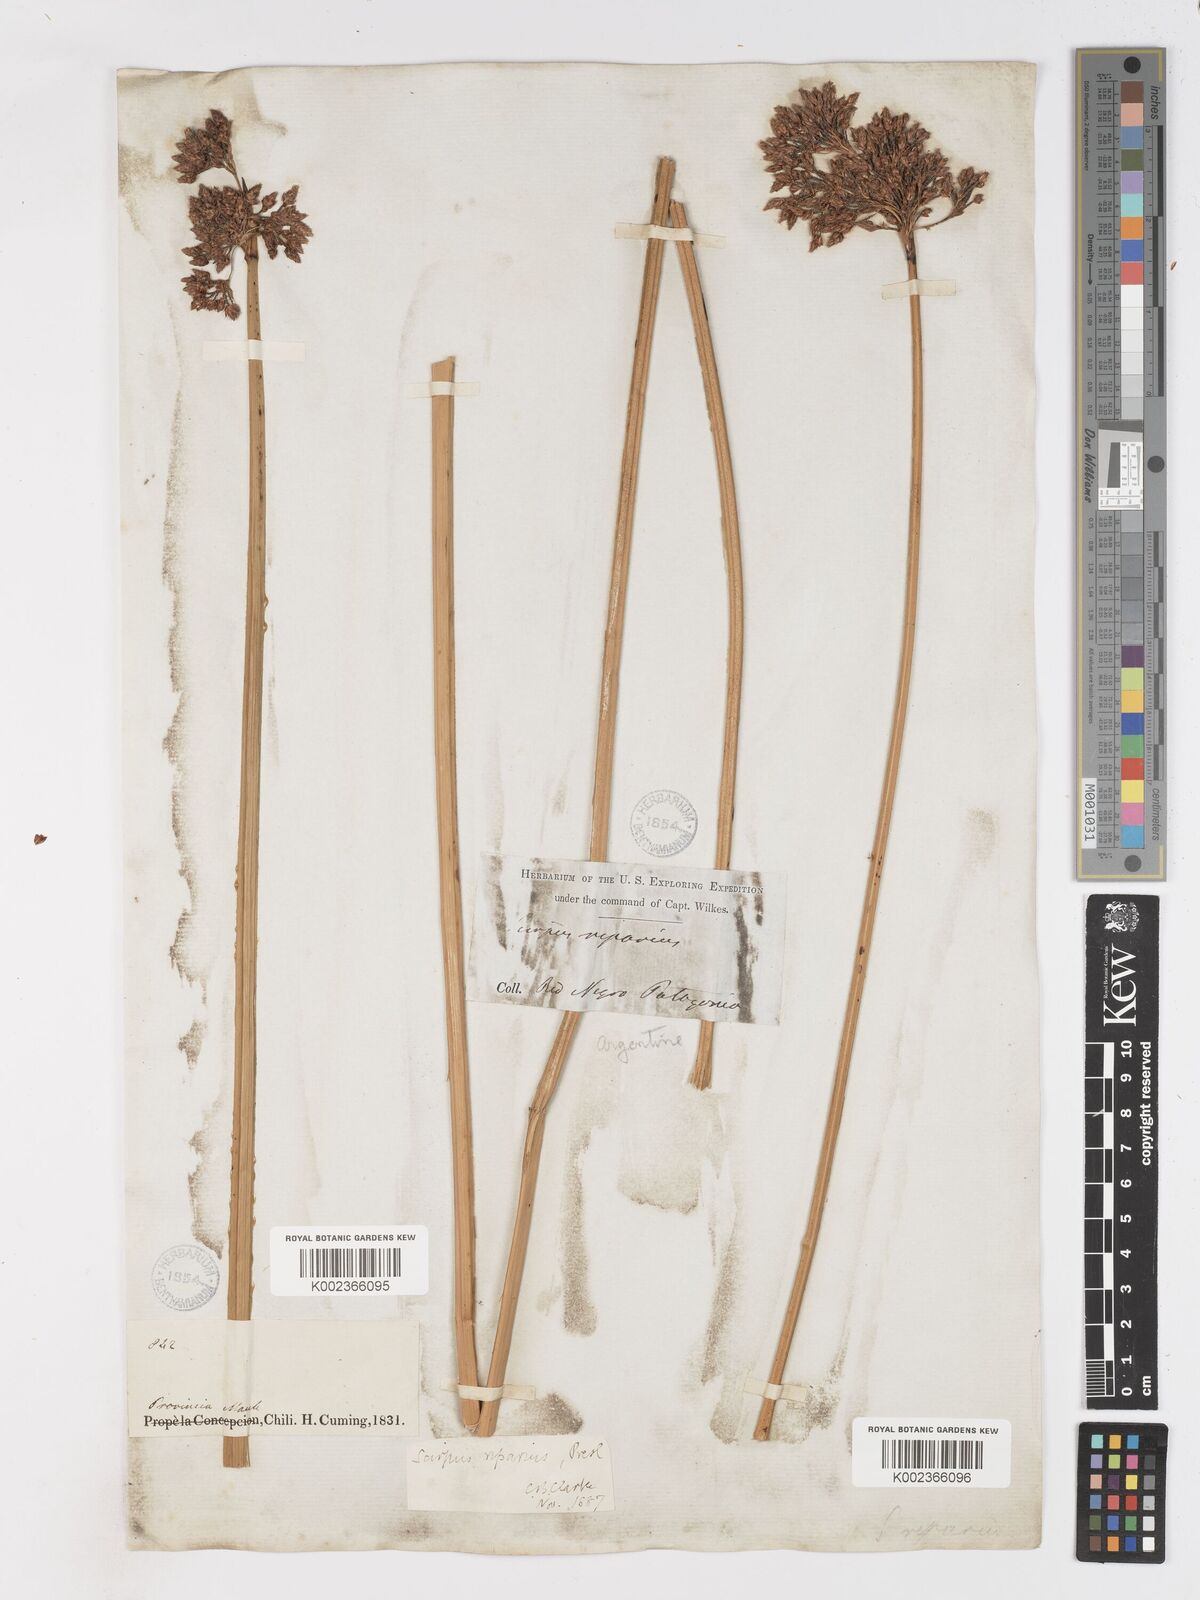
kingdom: Plantae
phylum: Tracheophyta
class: Liliopsida
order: Poales
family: Cyperaceae
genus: Schoenoplectus
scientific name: Schoenoplectus californicus
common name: California bulrush
